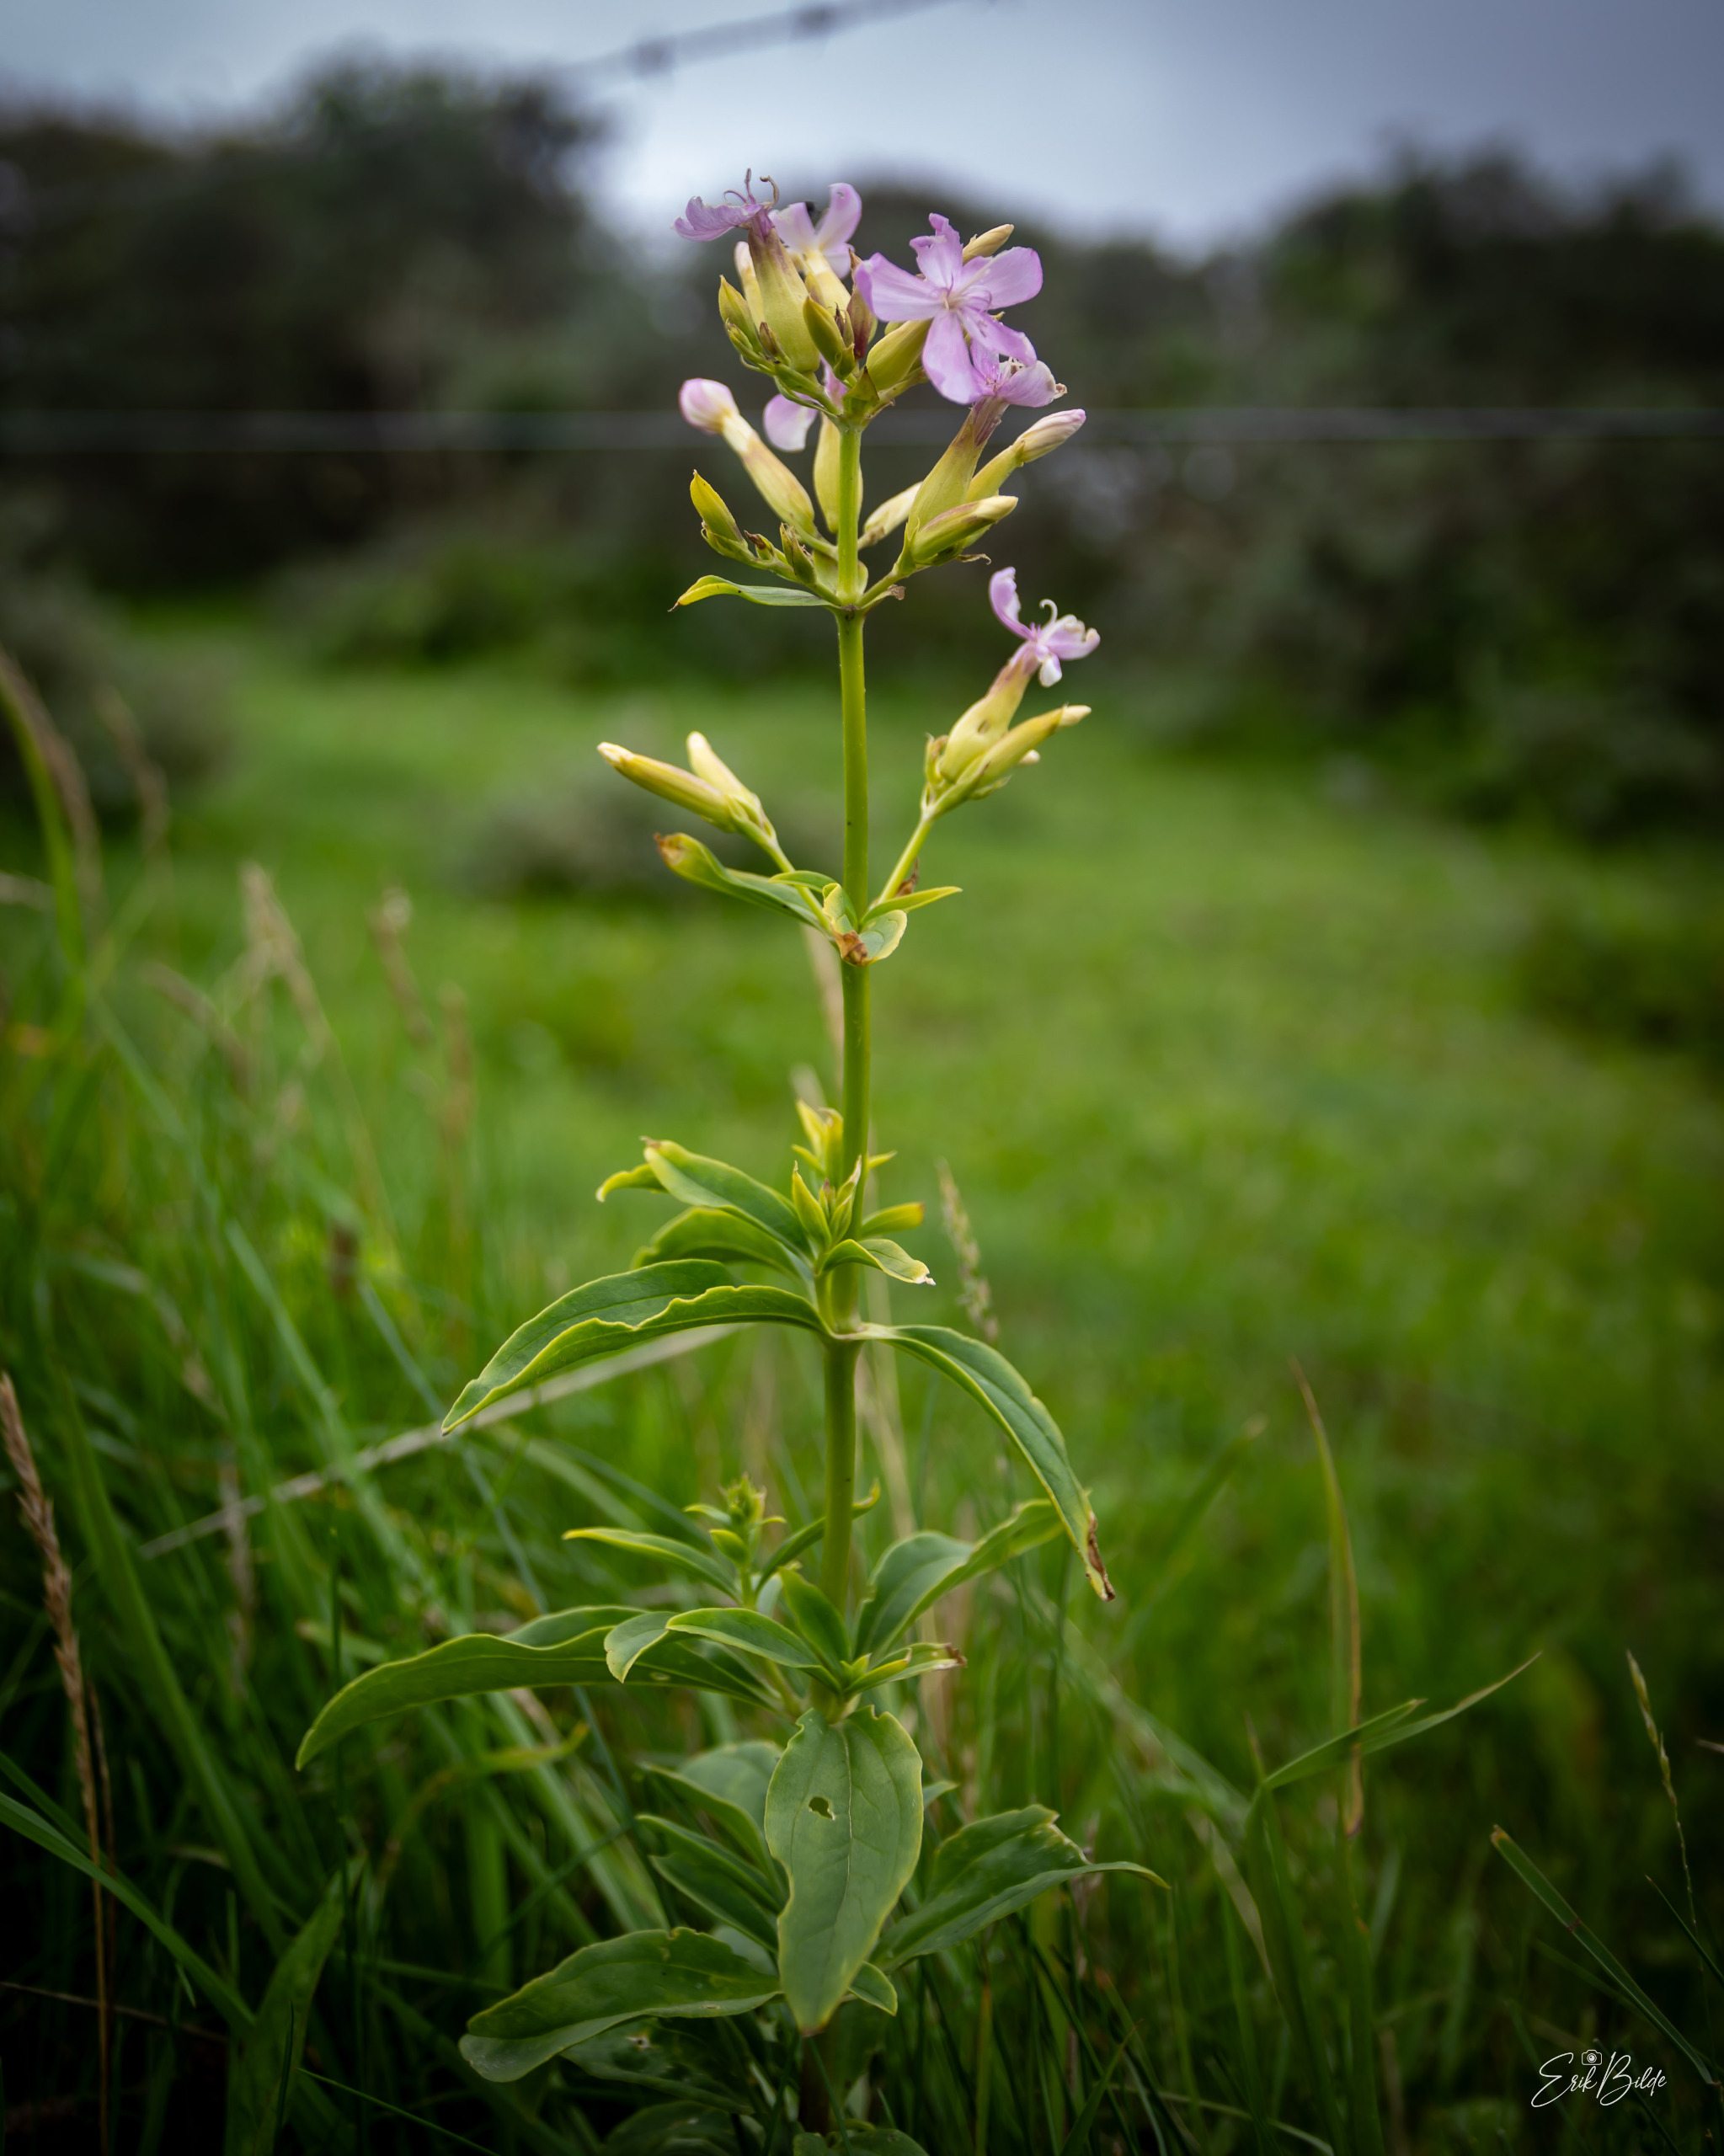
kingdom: Plantae
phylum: Tracheophyta
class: Magnoliopsida
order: Caryophyllales
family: Caryophyllaceae
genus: Saponaria
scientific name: Saponaria officinalis
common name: Sæbeurt
